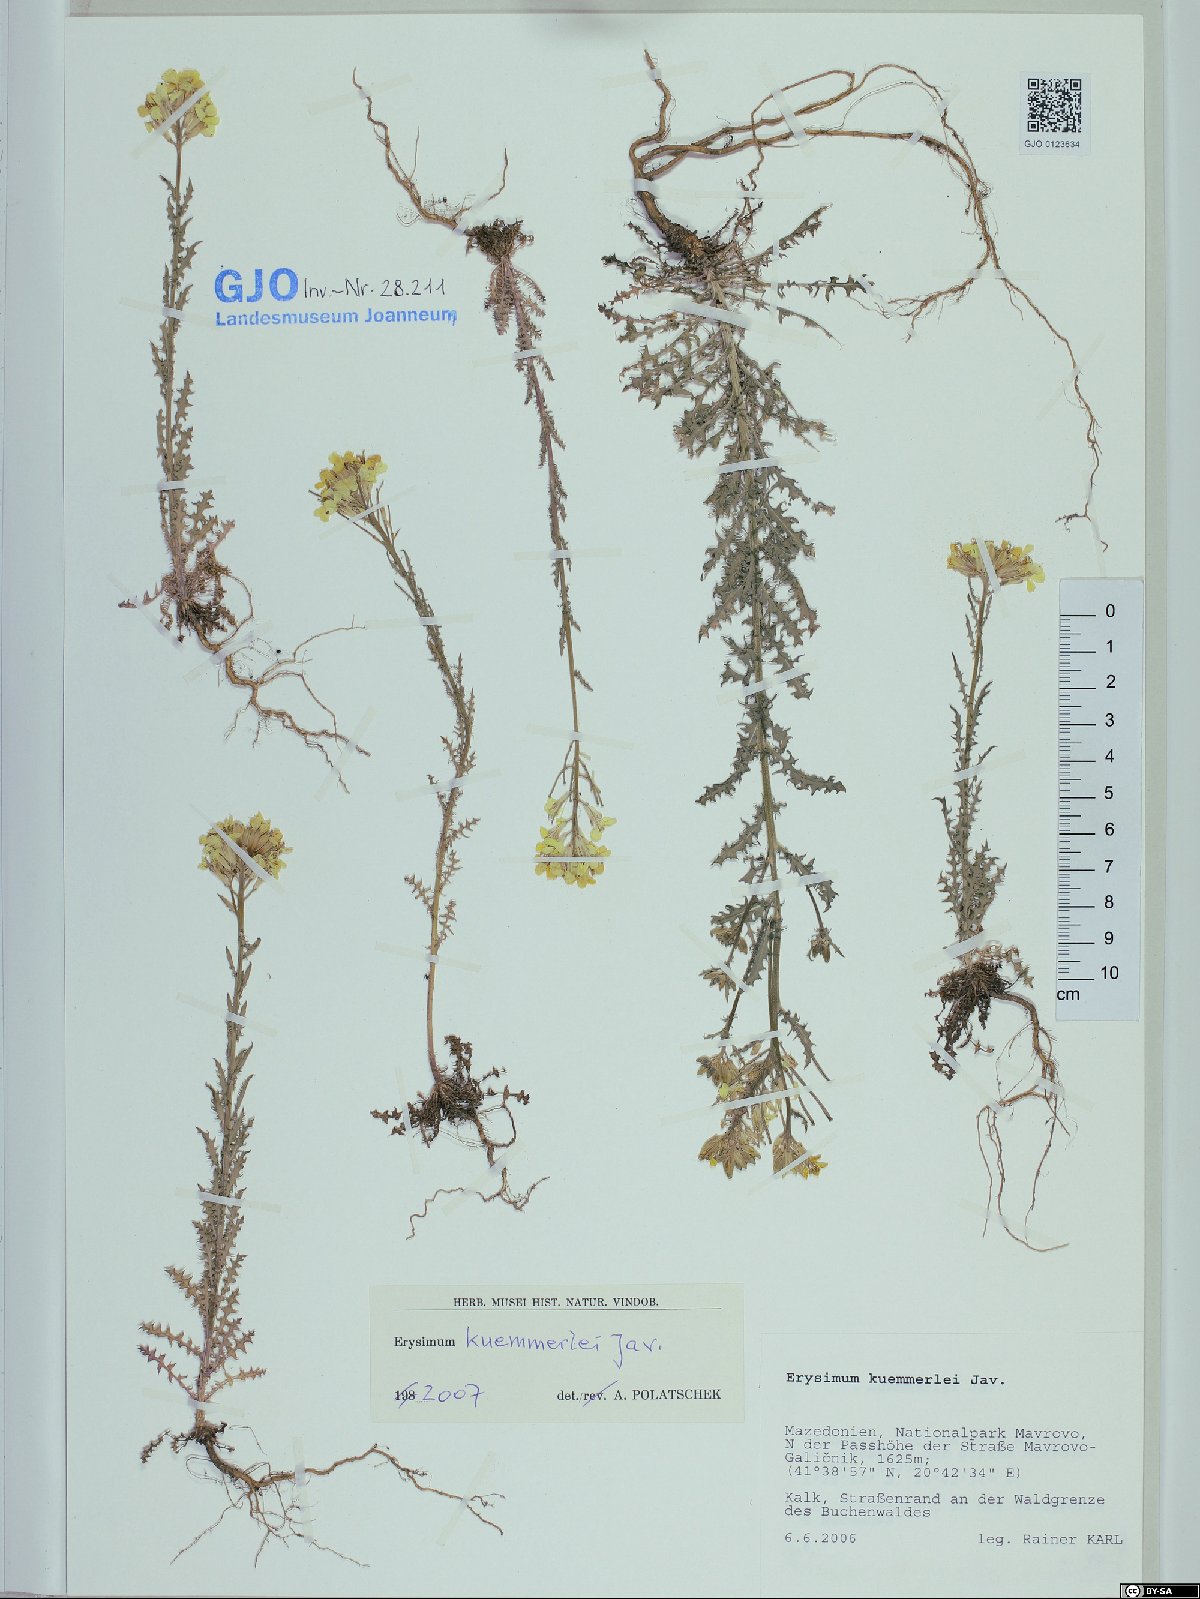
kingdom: Plantae
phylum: Tracheophyta
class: Magnoliopsida
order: Brassicales
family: Brassicaceae
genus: Erysimum
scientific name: Erysimum krendlii
